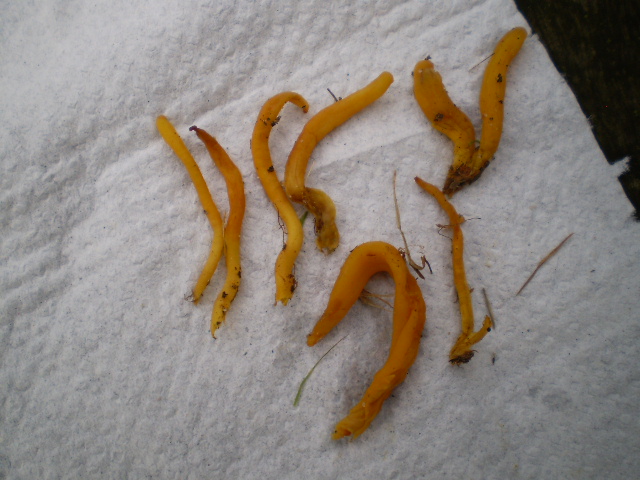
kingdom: Fungi
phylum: Basidiomycota
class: Agaricomycetes
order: Agaricales
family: Clavariaceae
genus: Clavulinopsis
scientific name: Clavulinopsis helvola
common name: orangegul køllesvamp
